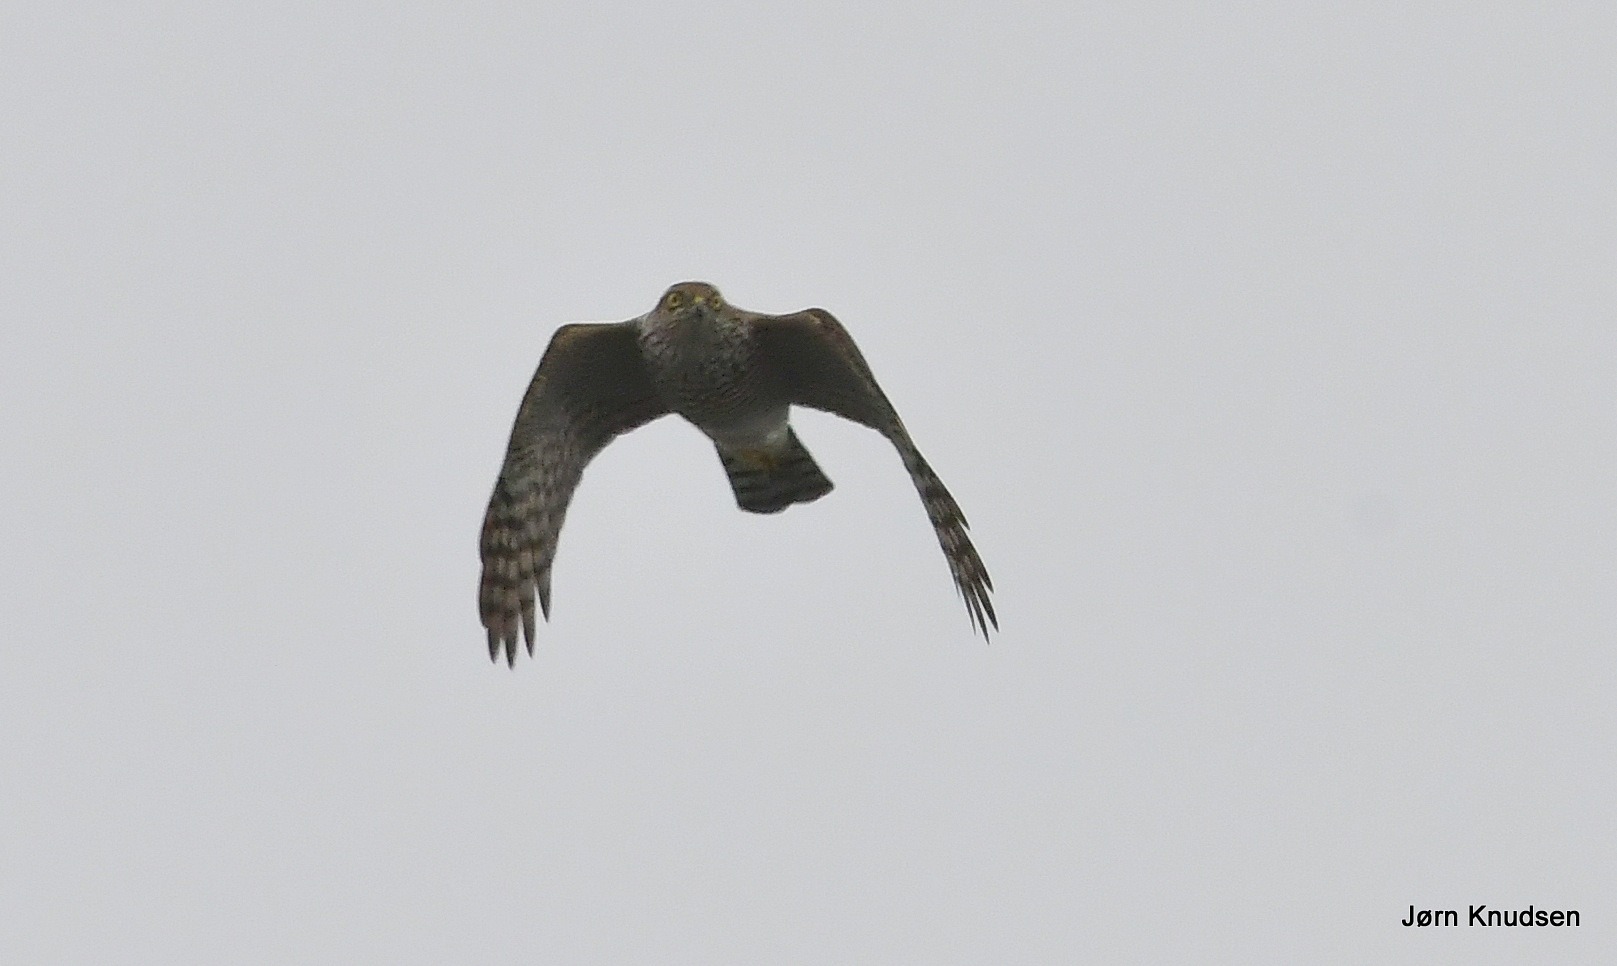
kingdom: Animalia
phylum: Chordata
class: Aves
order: Accipitriformes
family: Accipitridae
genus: Accipiter
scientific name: Accipiter nisus
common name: Spurvehøg
